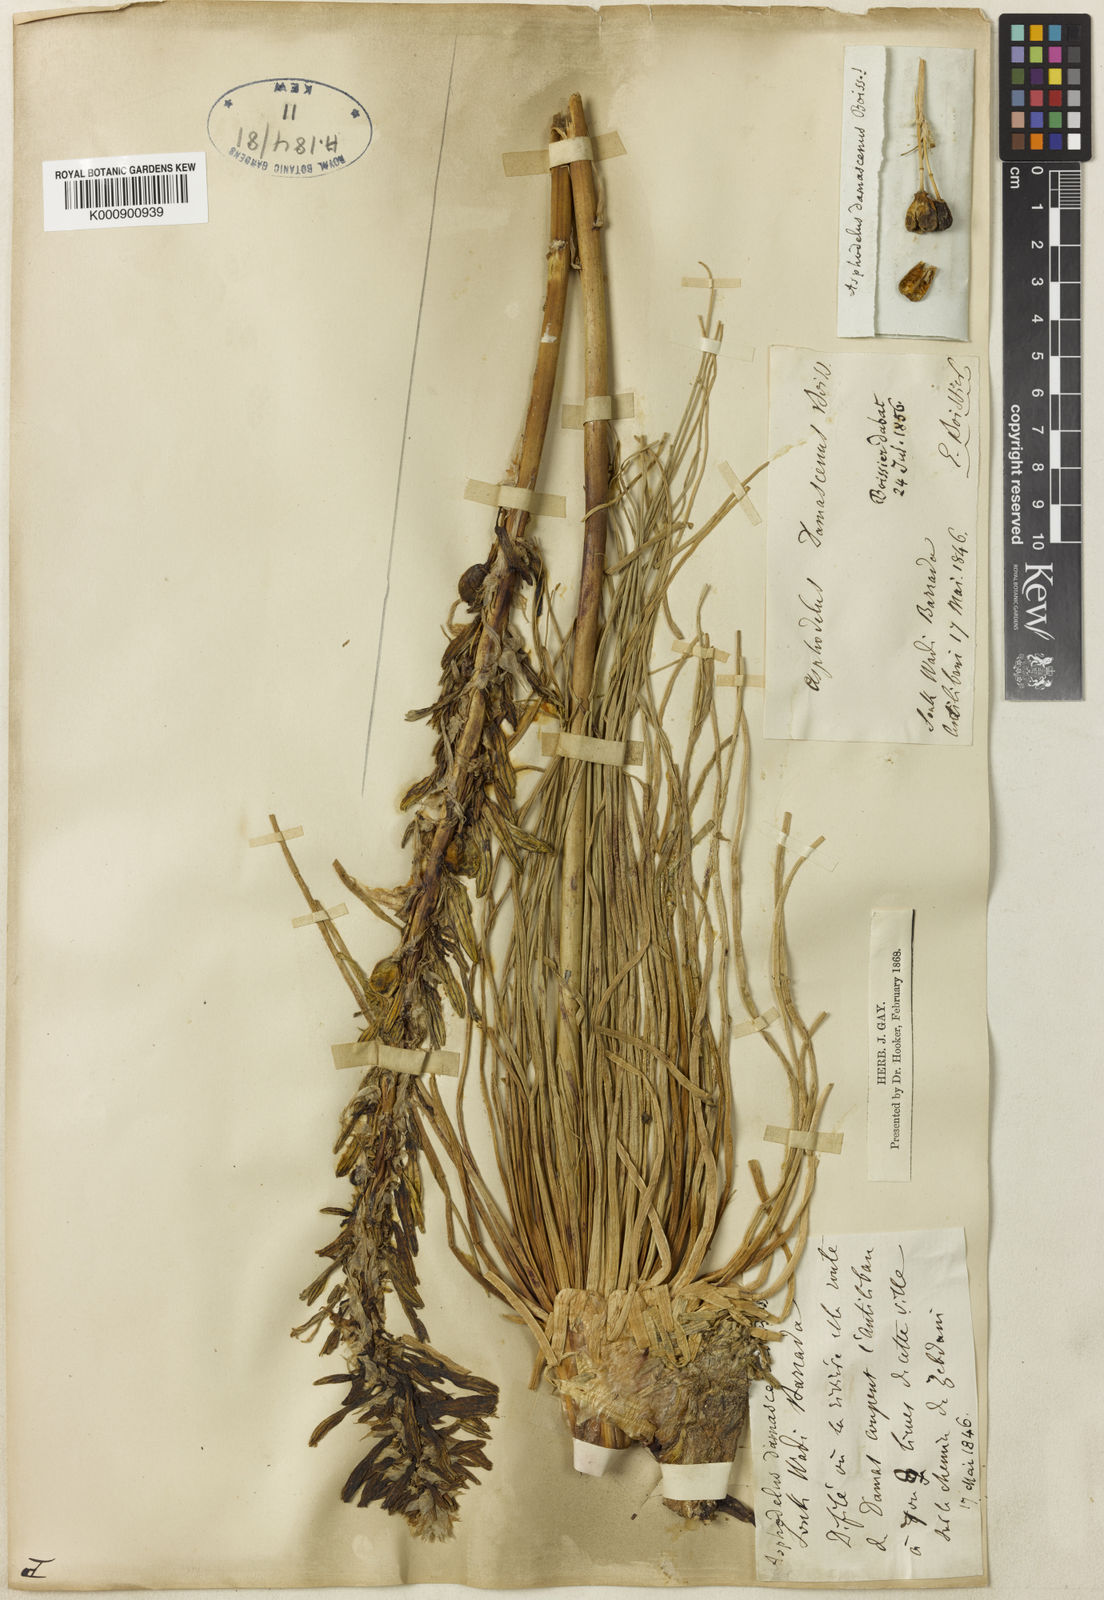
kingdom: Plantae
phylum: Tracheophyta
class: Liliopsida
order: Asparagales
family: Asphodelaceae
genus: Asphodeline
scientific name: Asphodeline damascena
